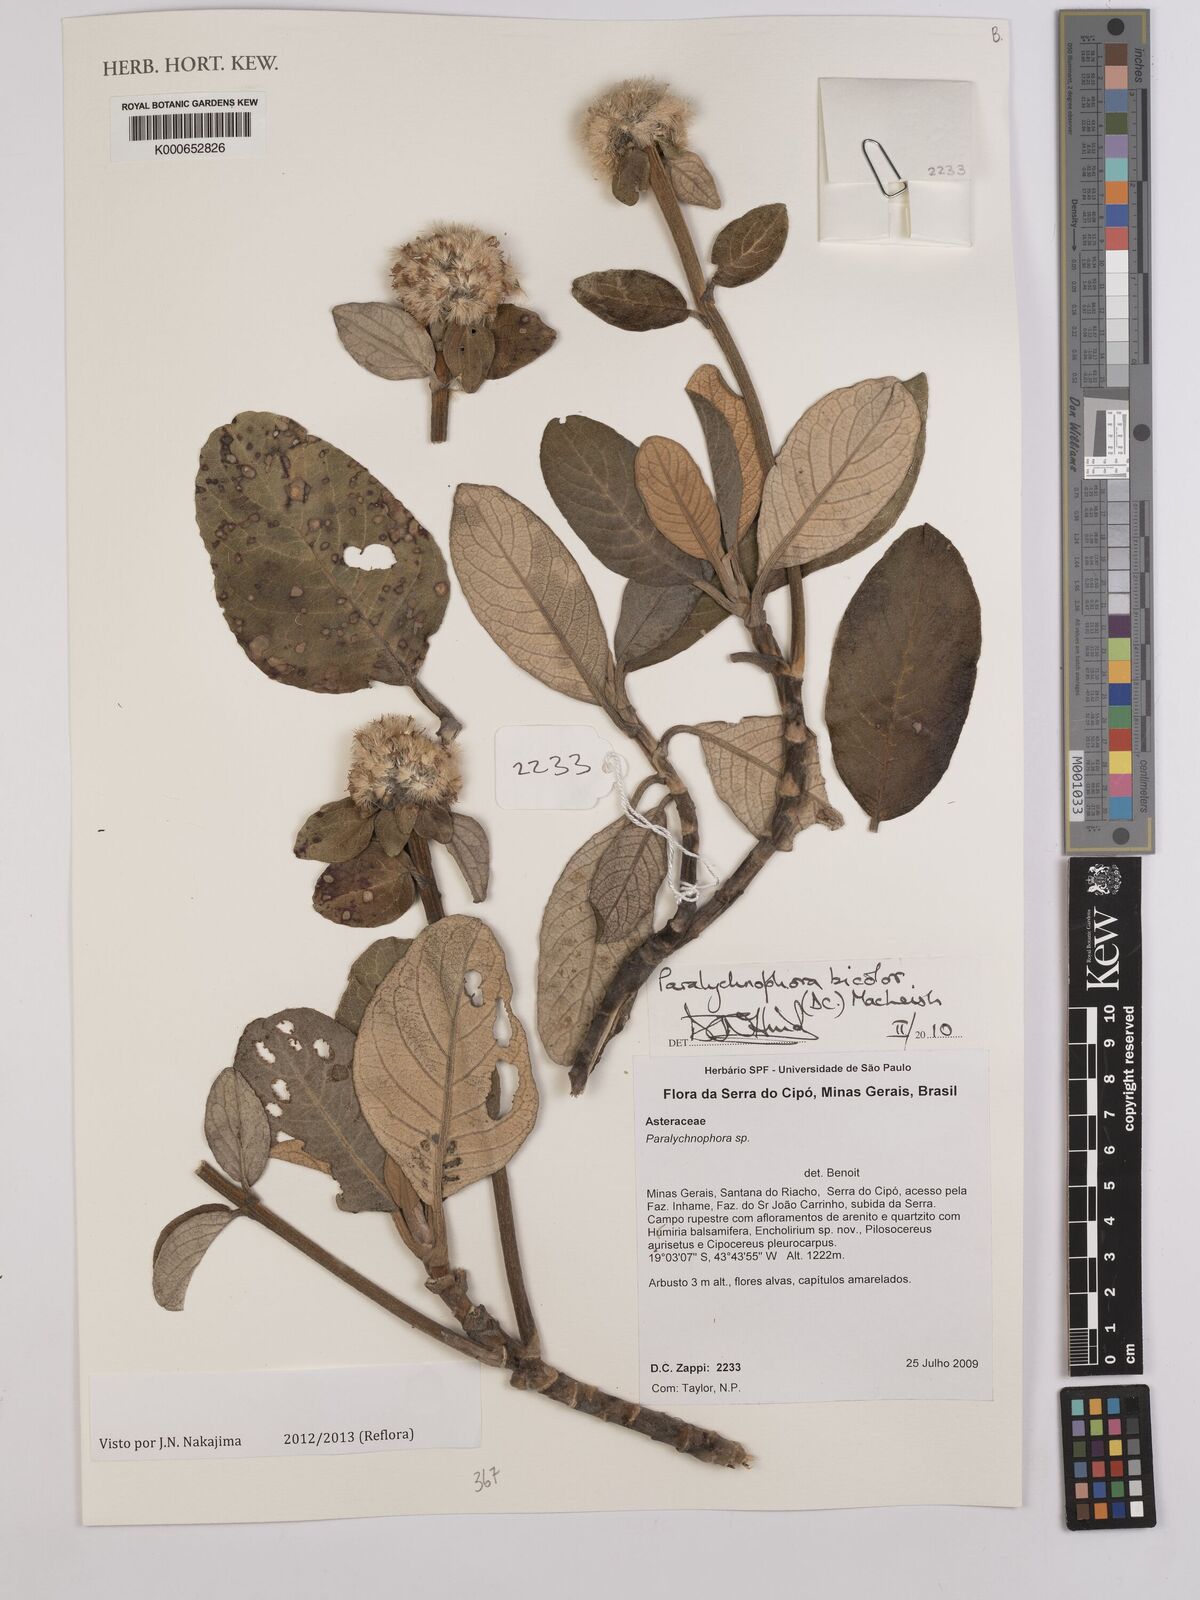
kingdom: Plantae
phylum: Tracheophyta
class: Magnoliopsida
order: Asterales
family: Asteraceae
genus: Paralychnophora
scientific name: Paralychnophora bicolor
